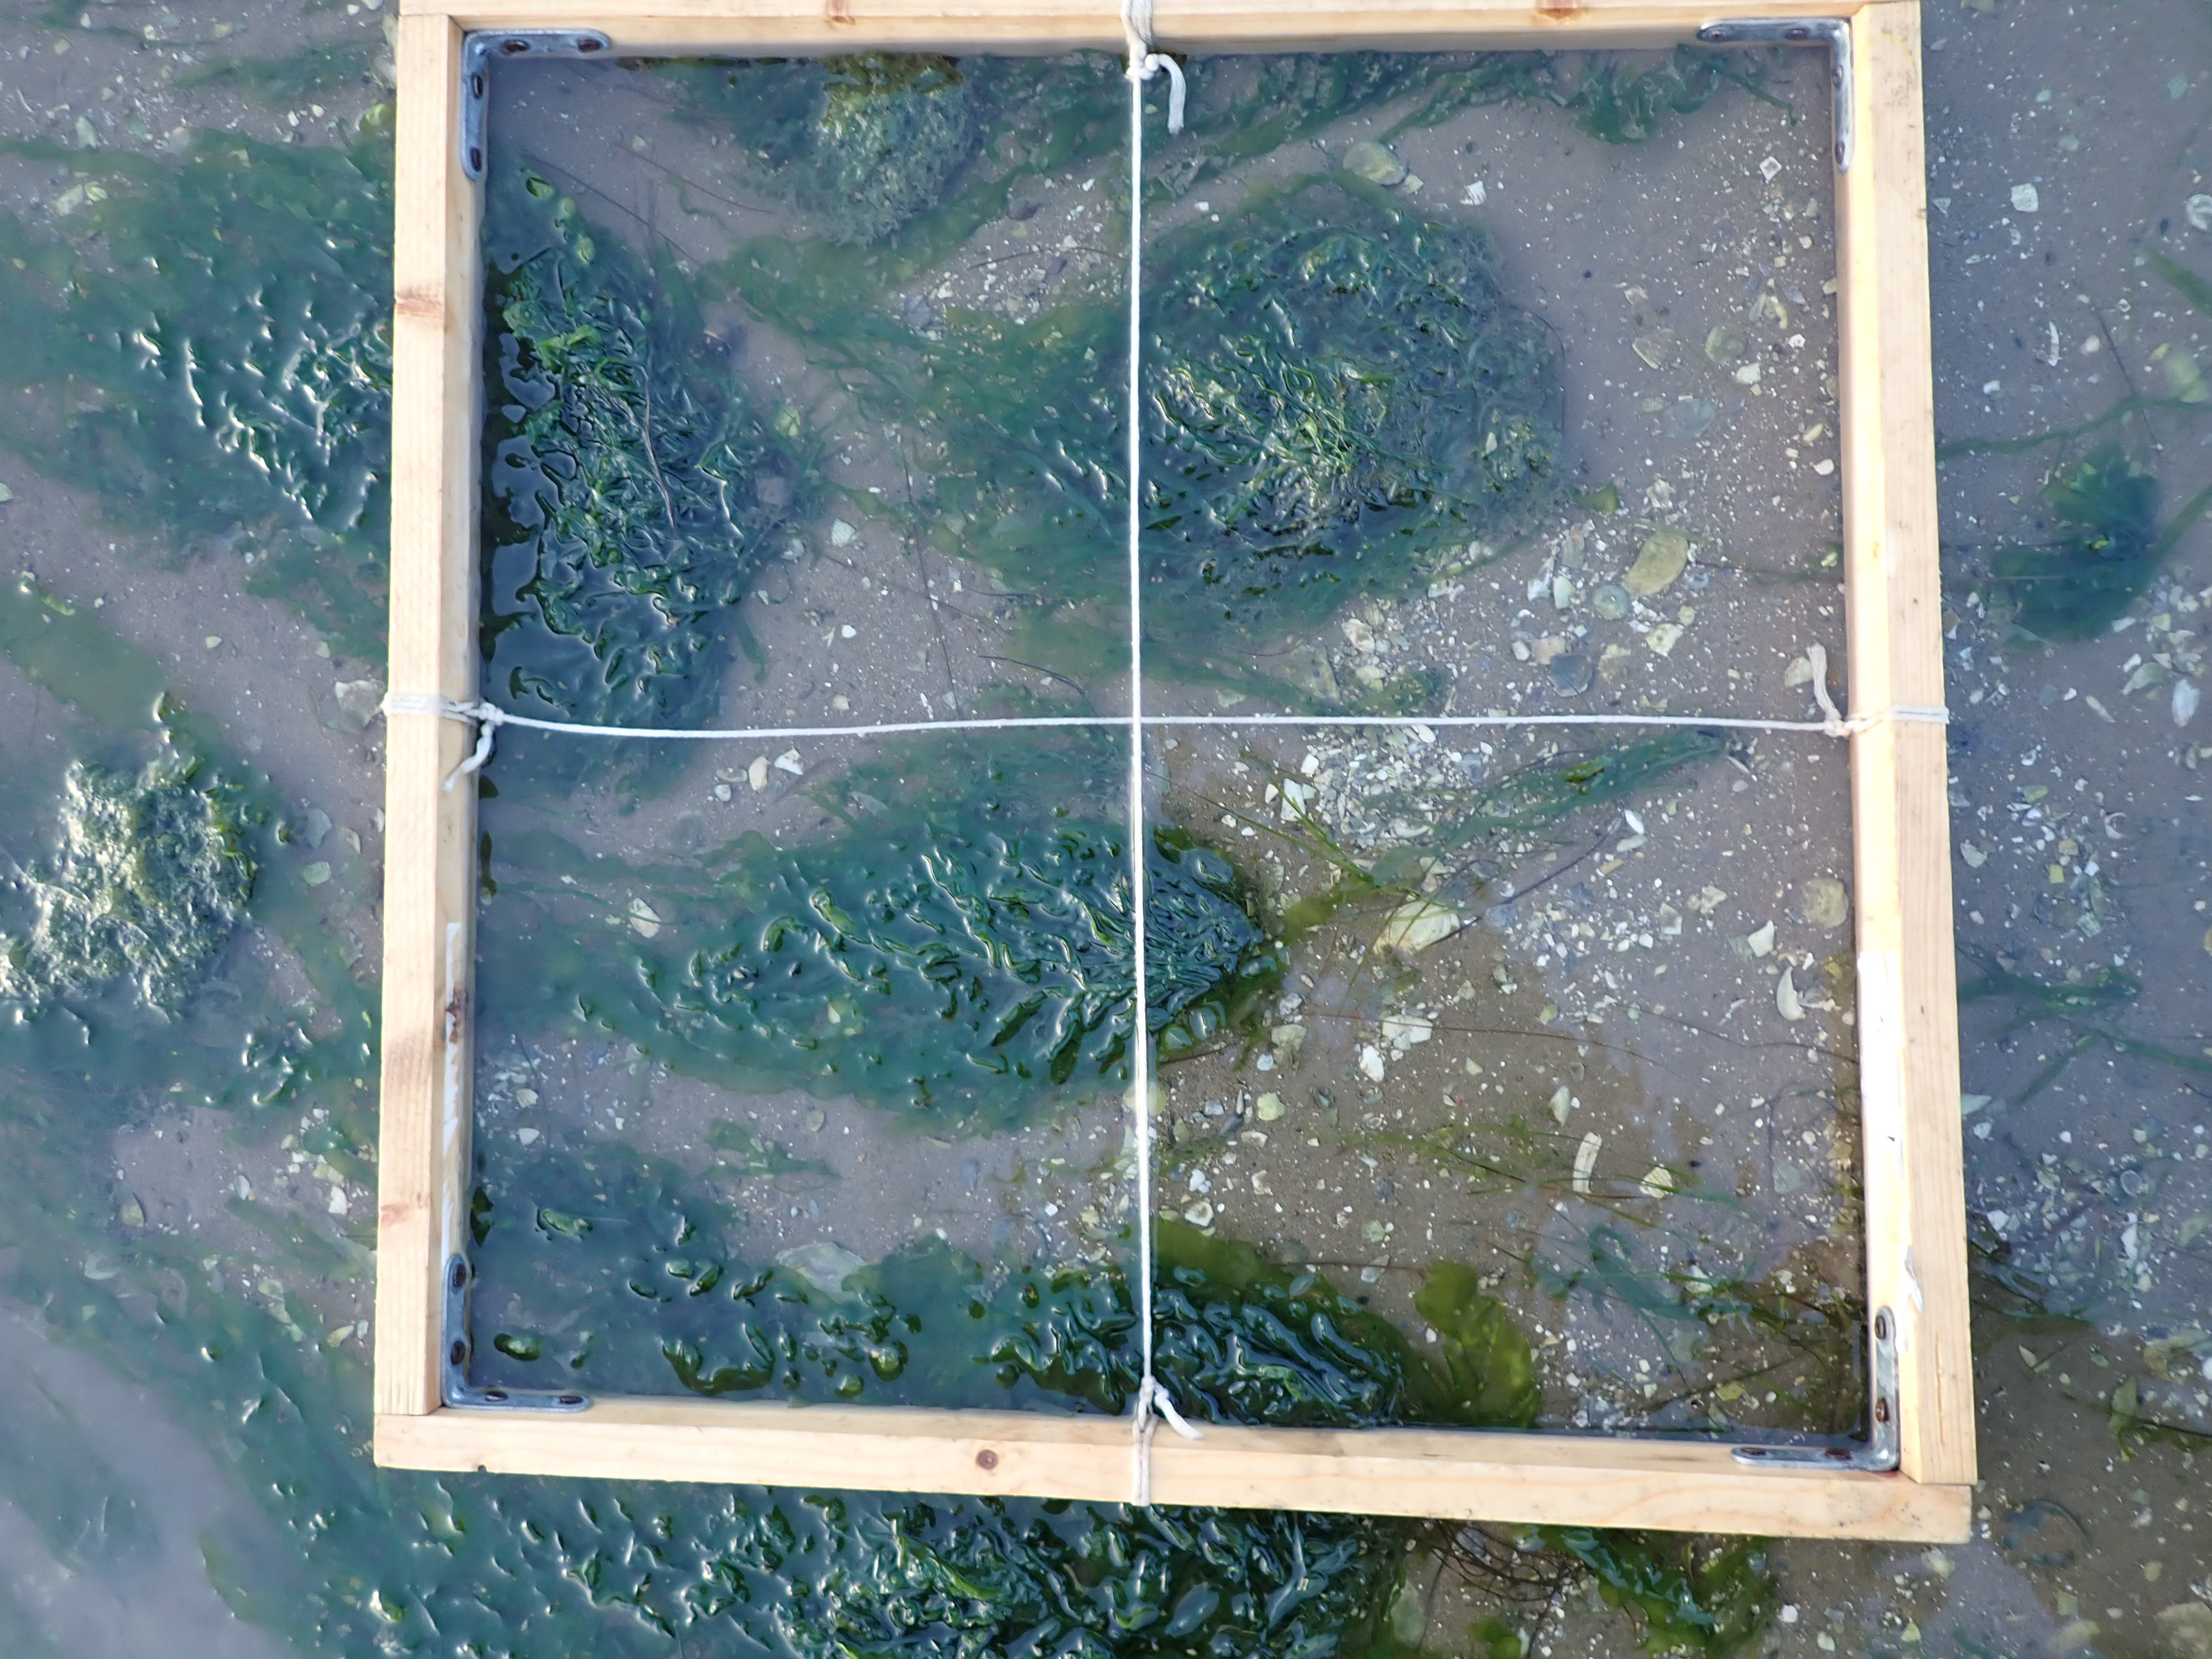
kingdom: Plantae
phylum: Chlorophyta
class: Ulvophyceae
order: Ulvales
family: Ulvaceae
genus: Ulva
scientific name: Ulva
